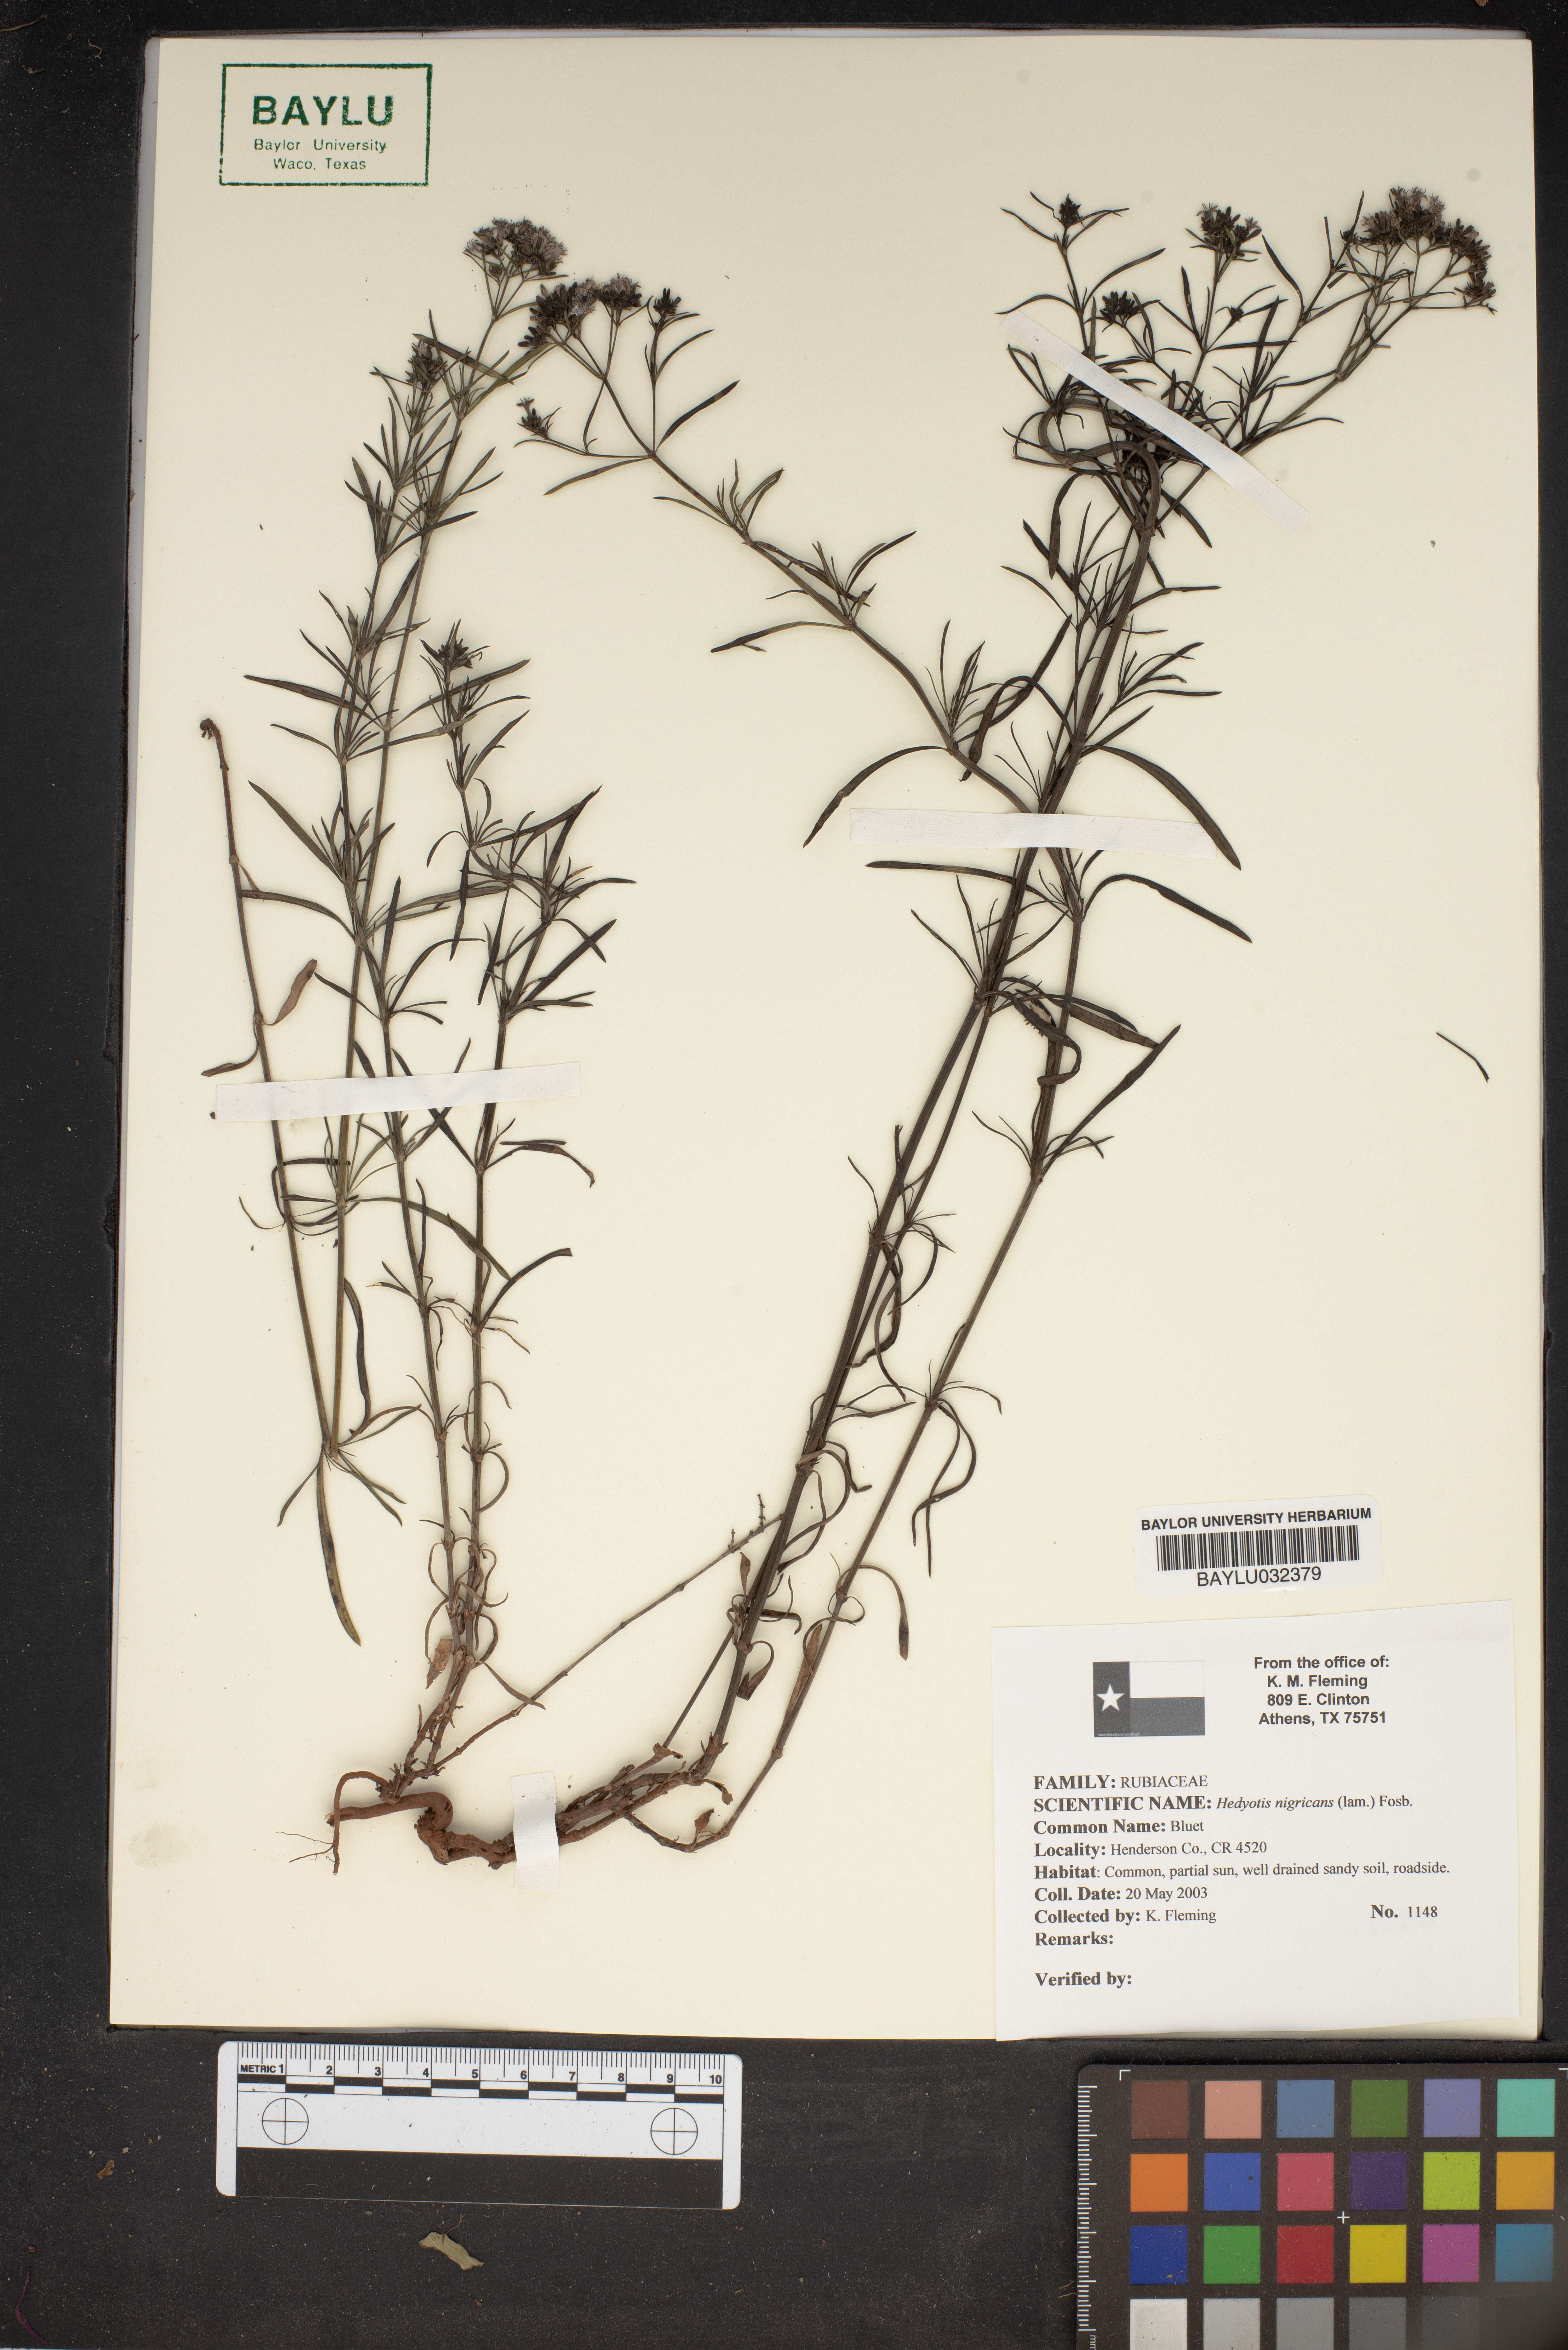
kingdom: Plantae
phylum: Tracheophyta
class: Magnoliopsida
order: Gentianales
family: Rubiaceae
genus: Stenaria
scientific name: Stenaria nigricans
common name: Diamondflowers
